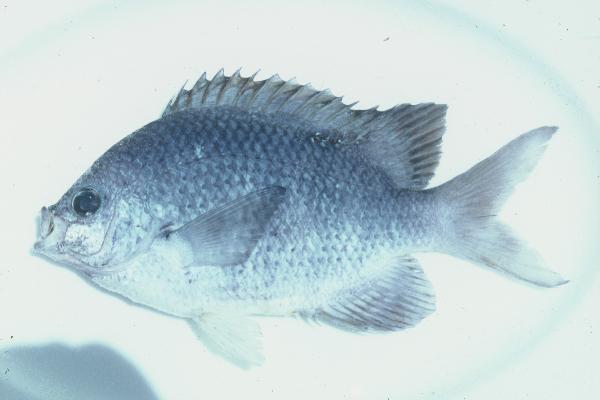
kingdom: Animalia
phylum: Chordata
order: Perciformes
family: Pomacentridae
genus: Abudefduf
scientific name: Abudefduf margariteus
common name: Pearly sergeant
